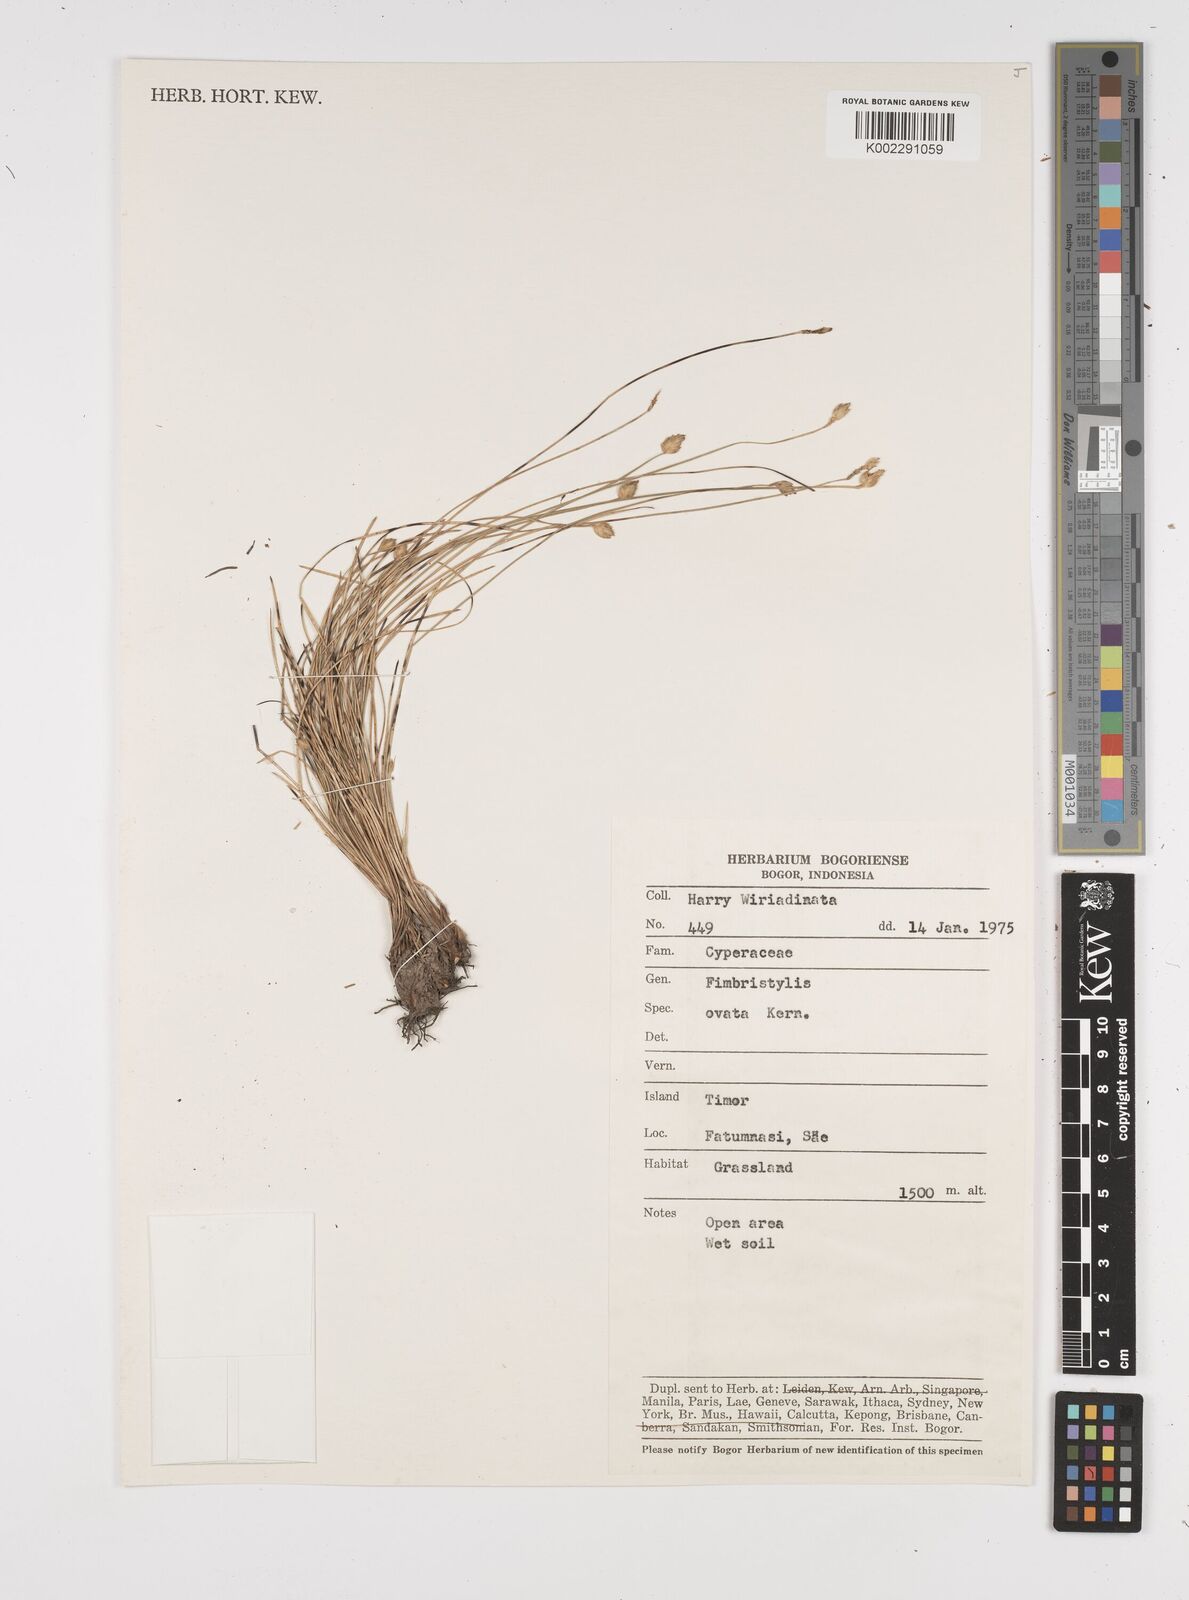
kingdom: Plantae
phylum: Tracheophyta
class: Liliopsida
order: Poales
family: Cyperaceae
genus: Abildgaardia
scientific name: Abildgaardia ovata
